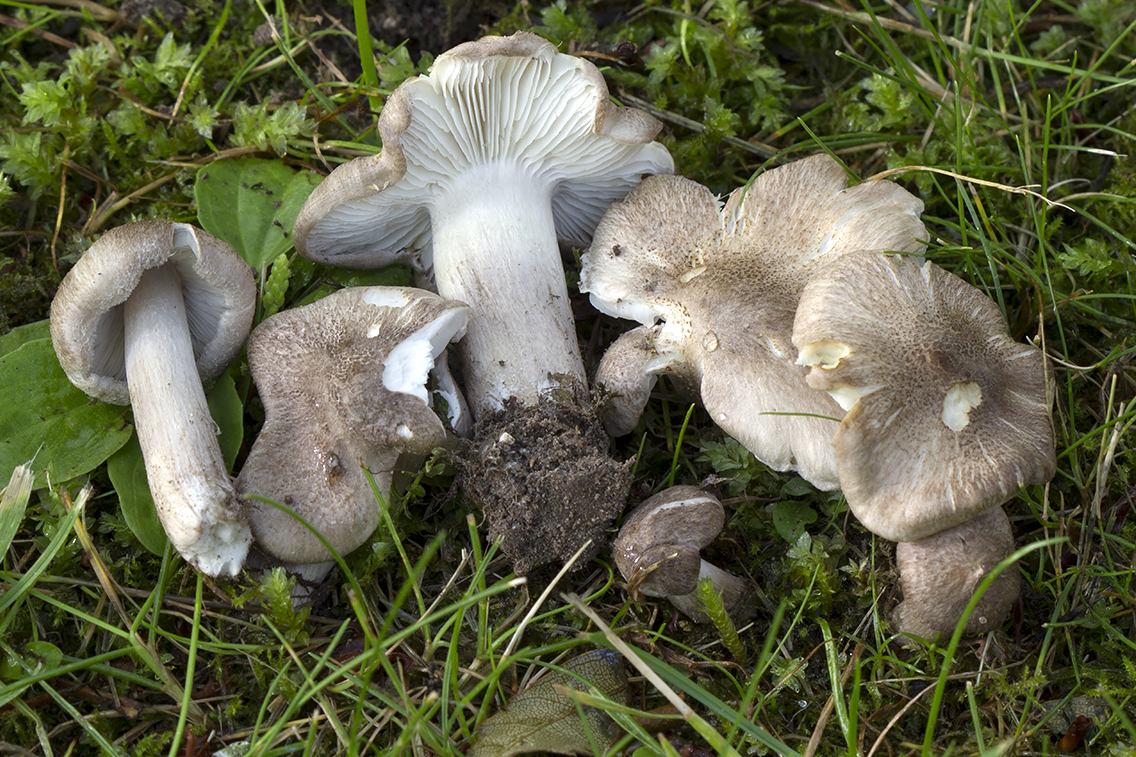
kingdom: Fungi
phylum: Basidiomycota
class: Agaricomycetes
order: Agaricales
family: Tricholomataceae
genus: Tricholoma
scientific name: Tricholoma argyraceum
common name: spids ridderhat
